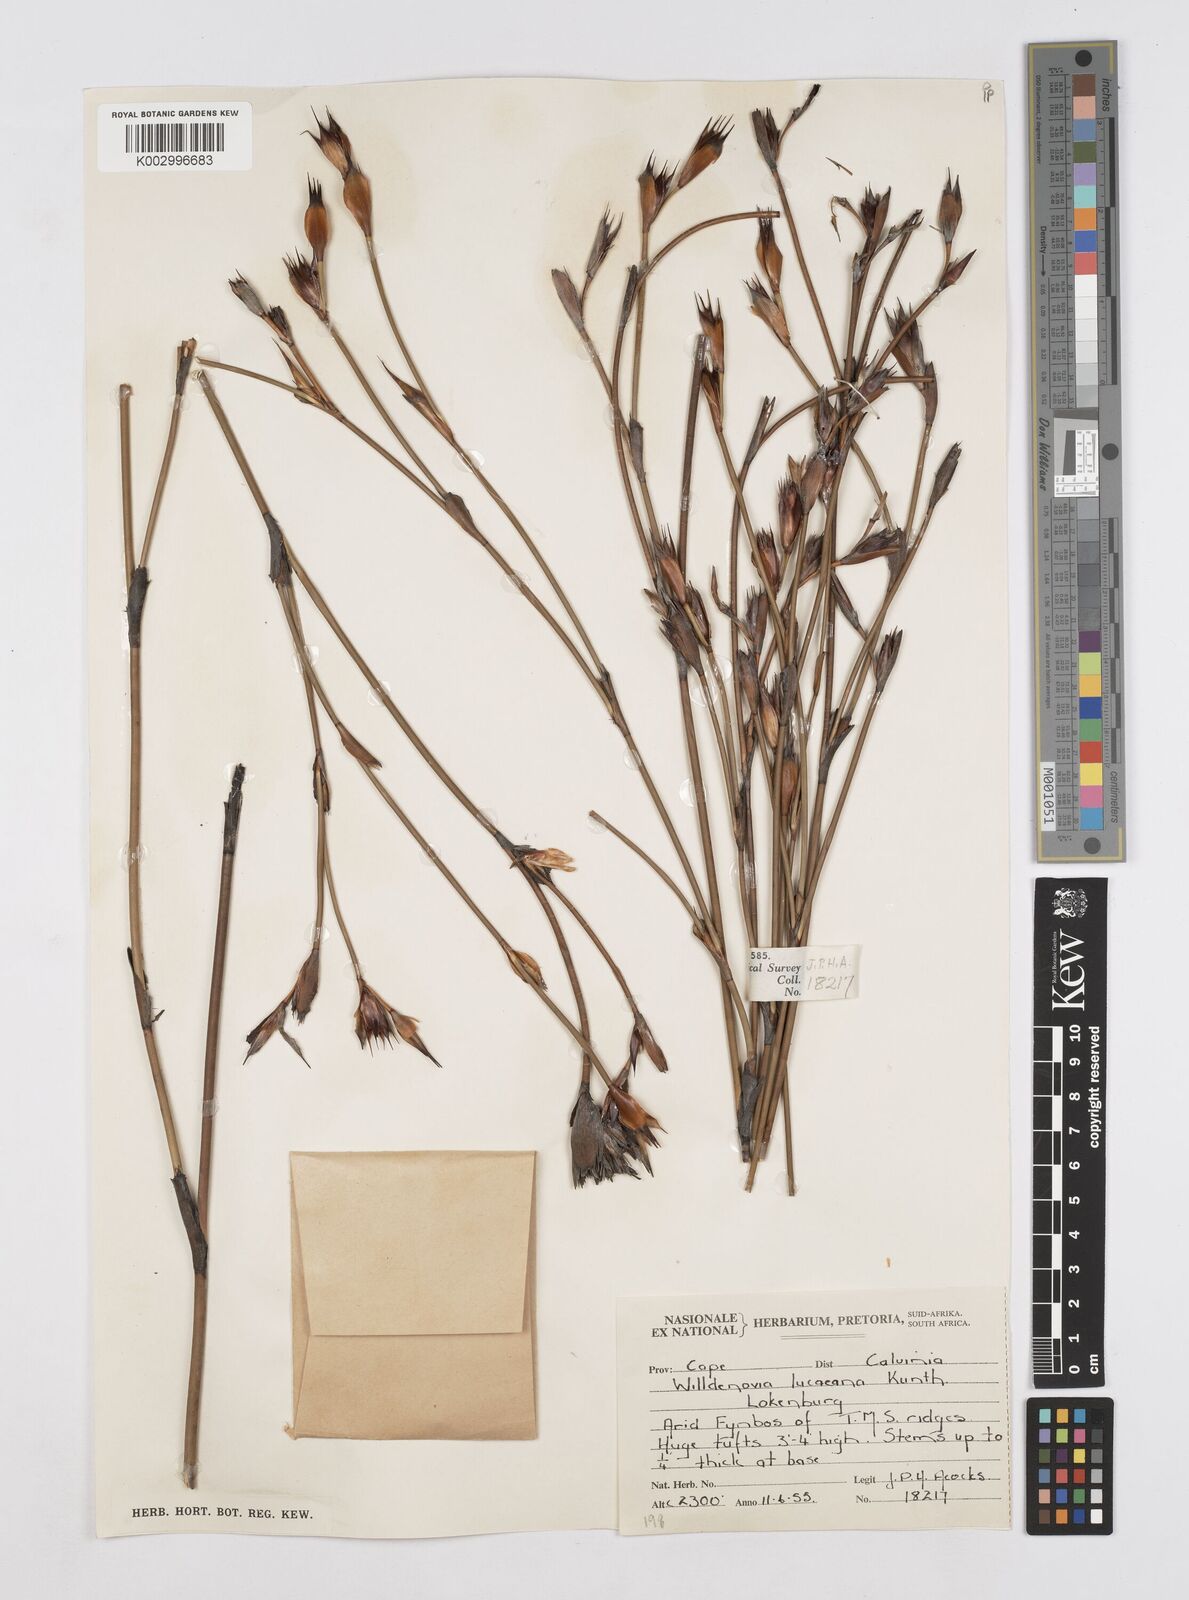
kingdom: Plantae
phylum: Tracheophyta
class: Liliopsida
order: Poales
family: Restionaceae
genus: Willdenowia
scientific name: Willdenowia glomerata
